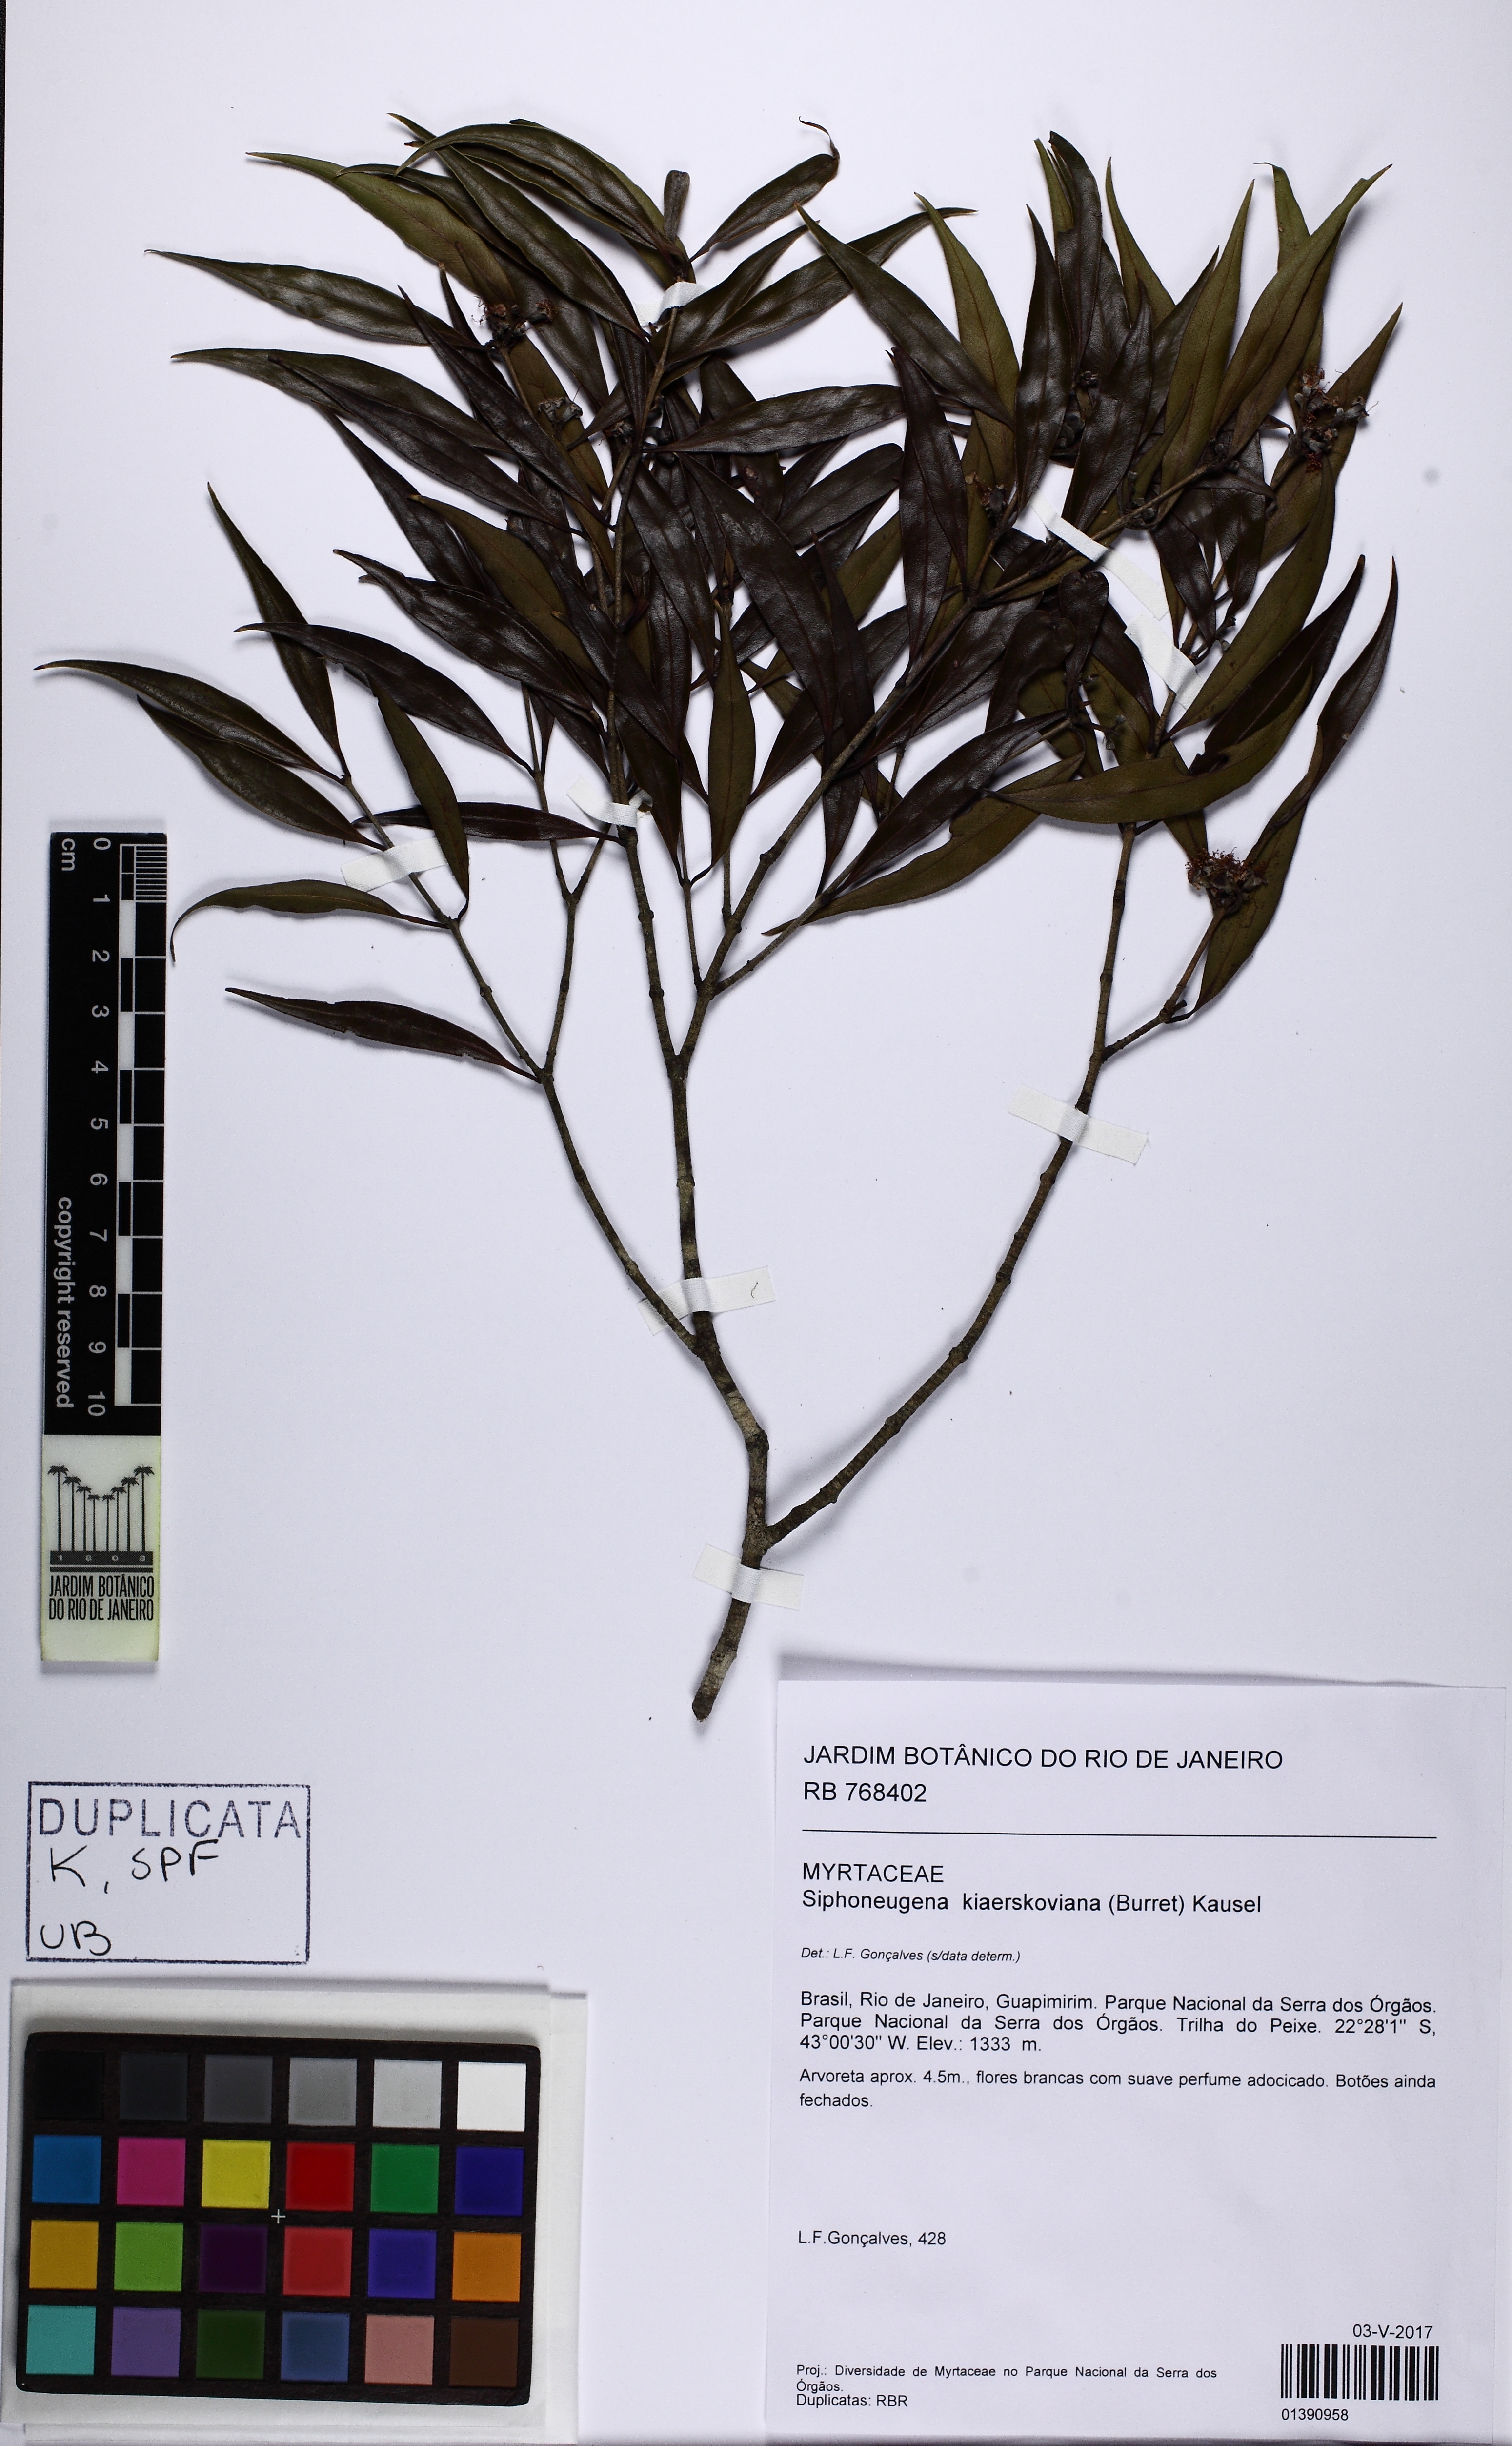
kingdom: Plantae
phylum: Tracheophyta
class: Magnoliopsida
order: Myrtales
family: Myrtaceae
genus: Siphoneugena
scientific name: Siphoneugena kiaerskoviana
